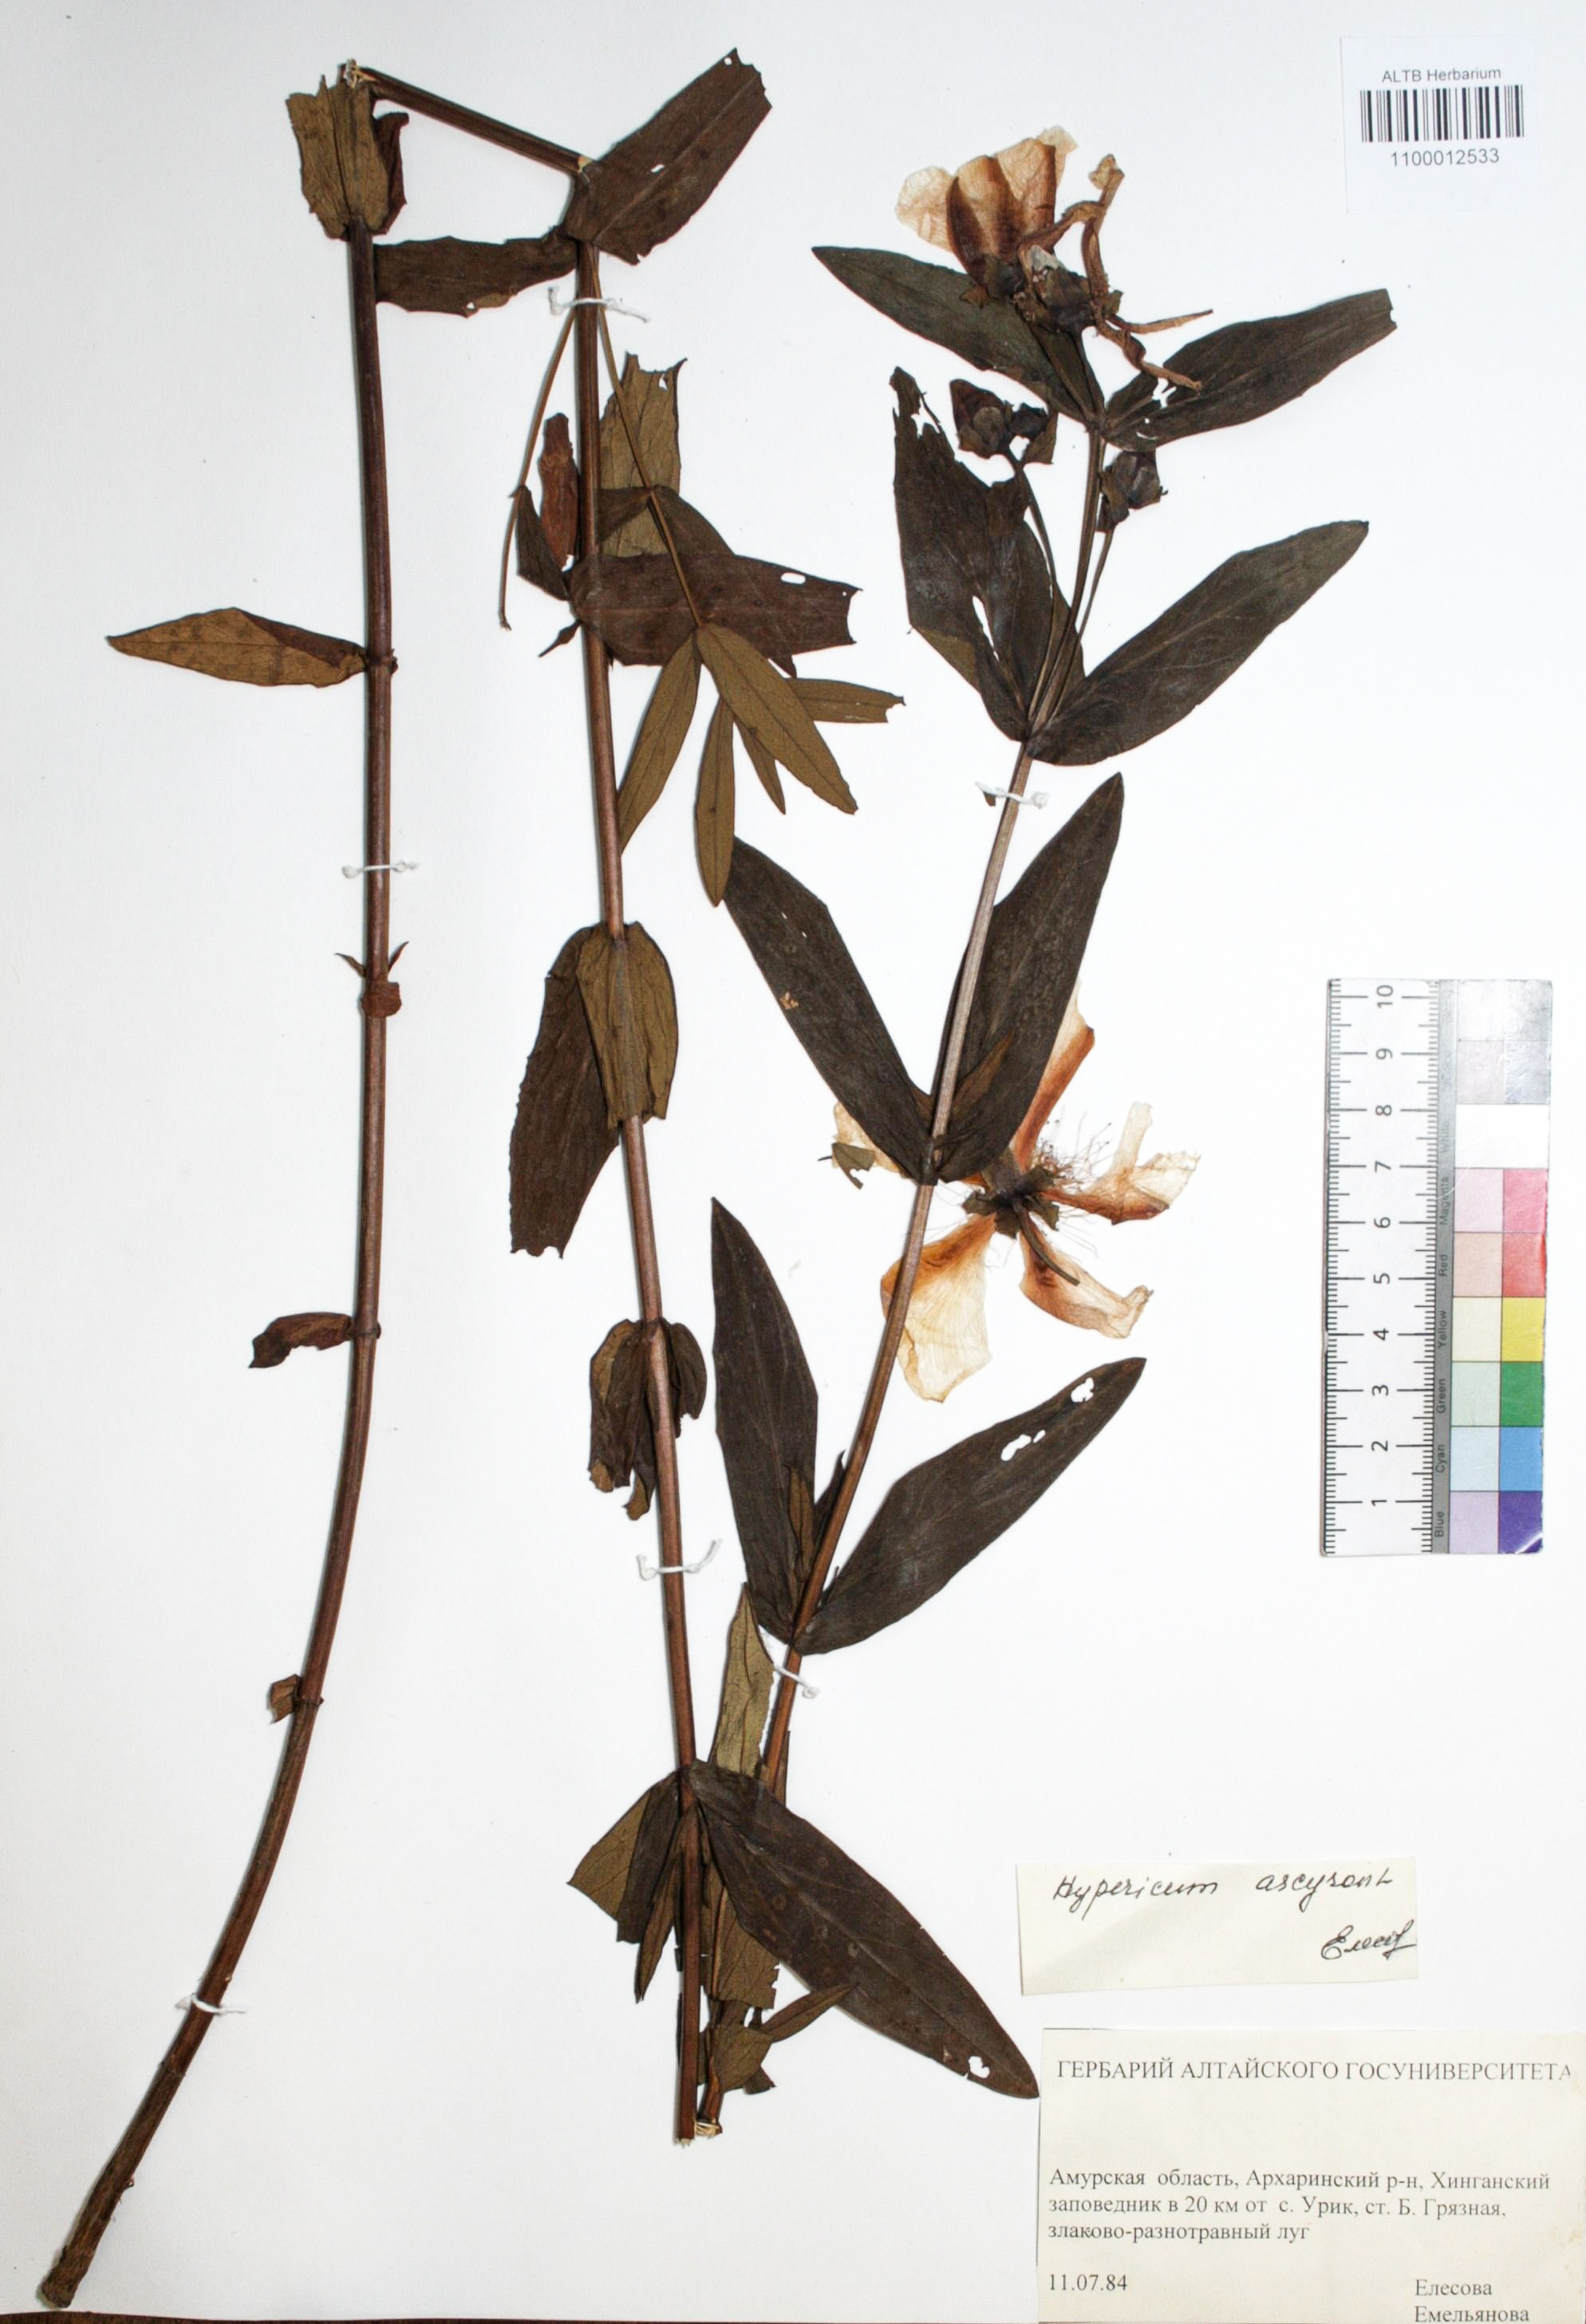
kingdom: Plantae
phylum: Tracheophyta
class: Magnoliopsida
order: Malpighiales
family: Hypericaceae
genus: Hypericum
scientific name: Hypericum ascyron
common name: Giant st. john's-wort
